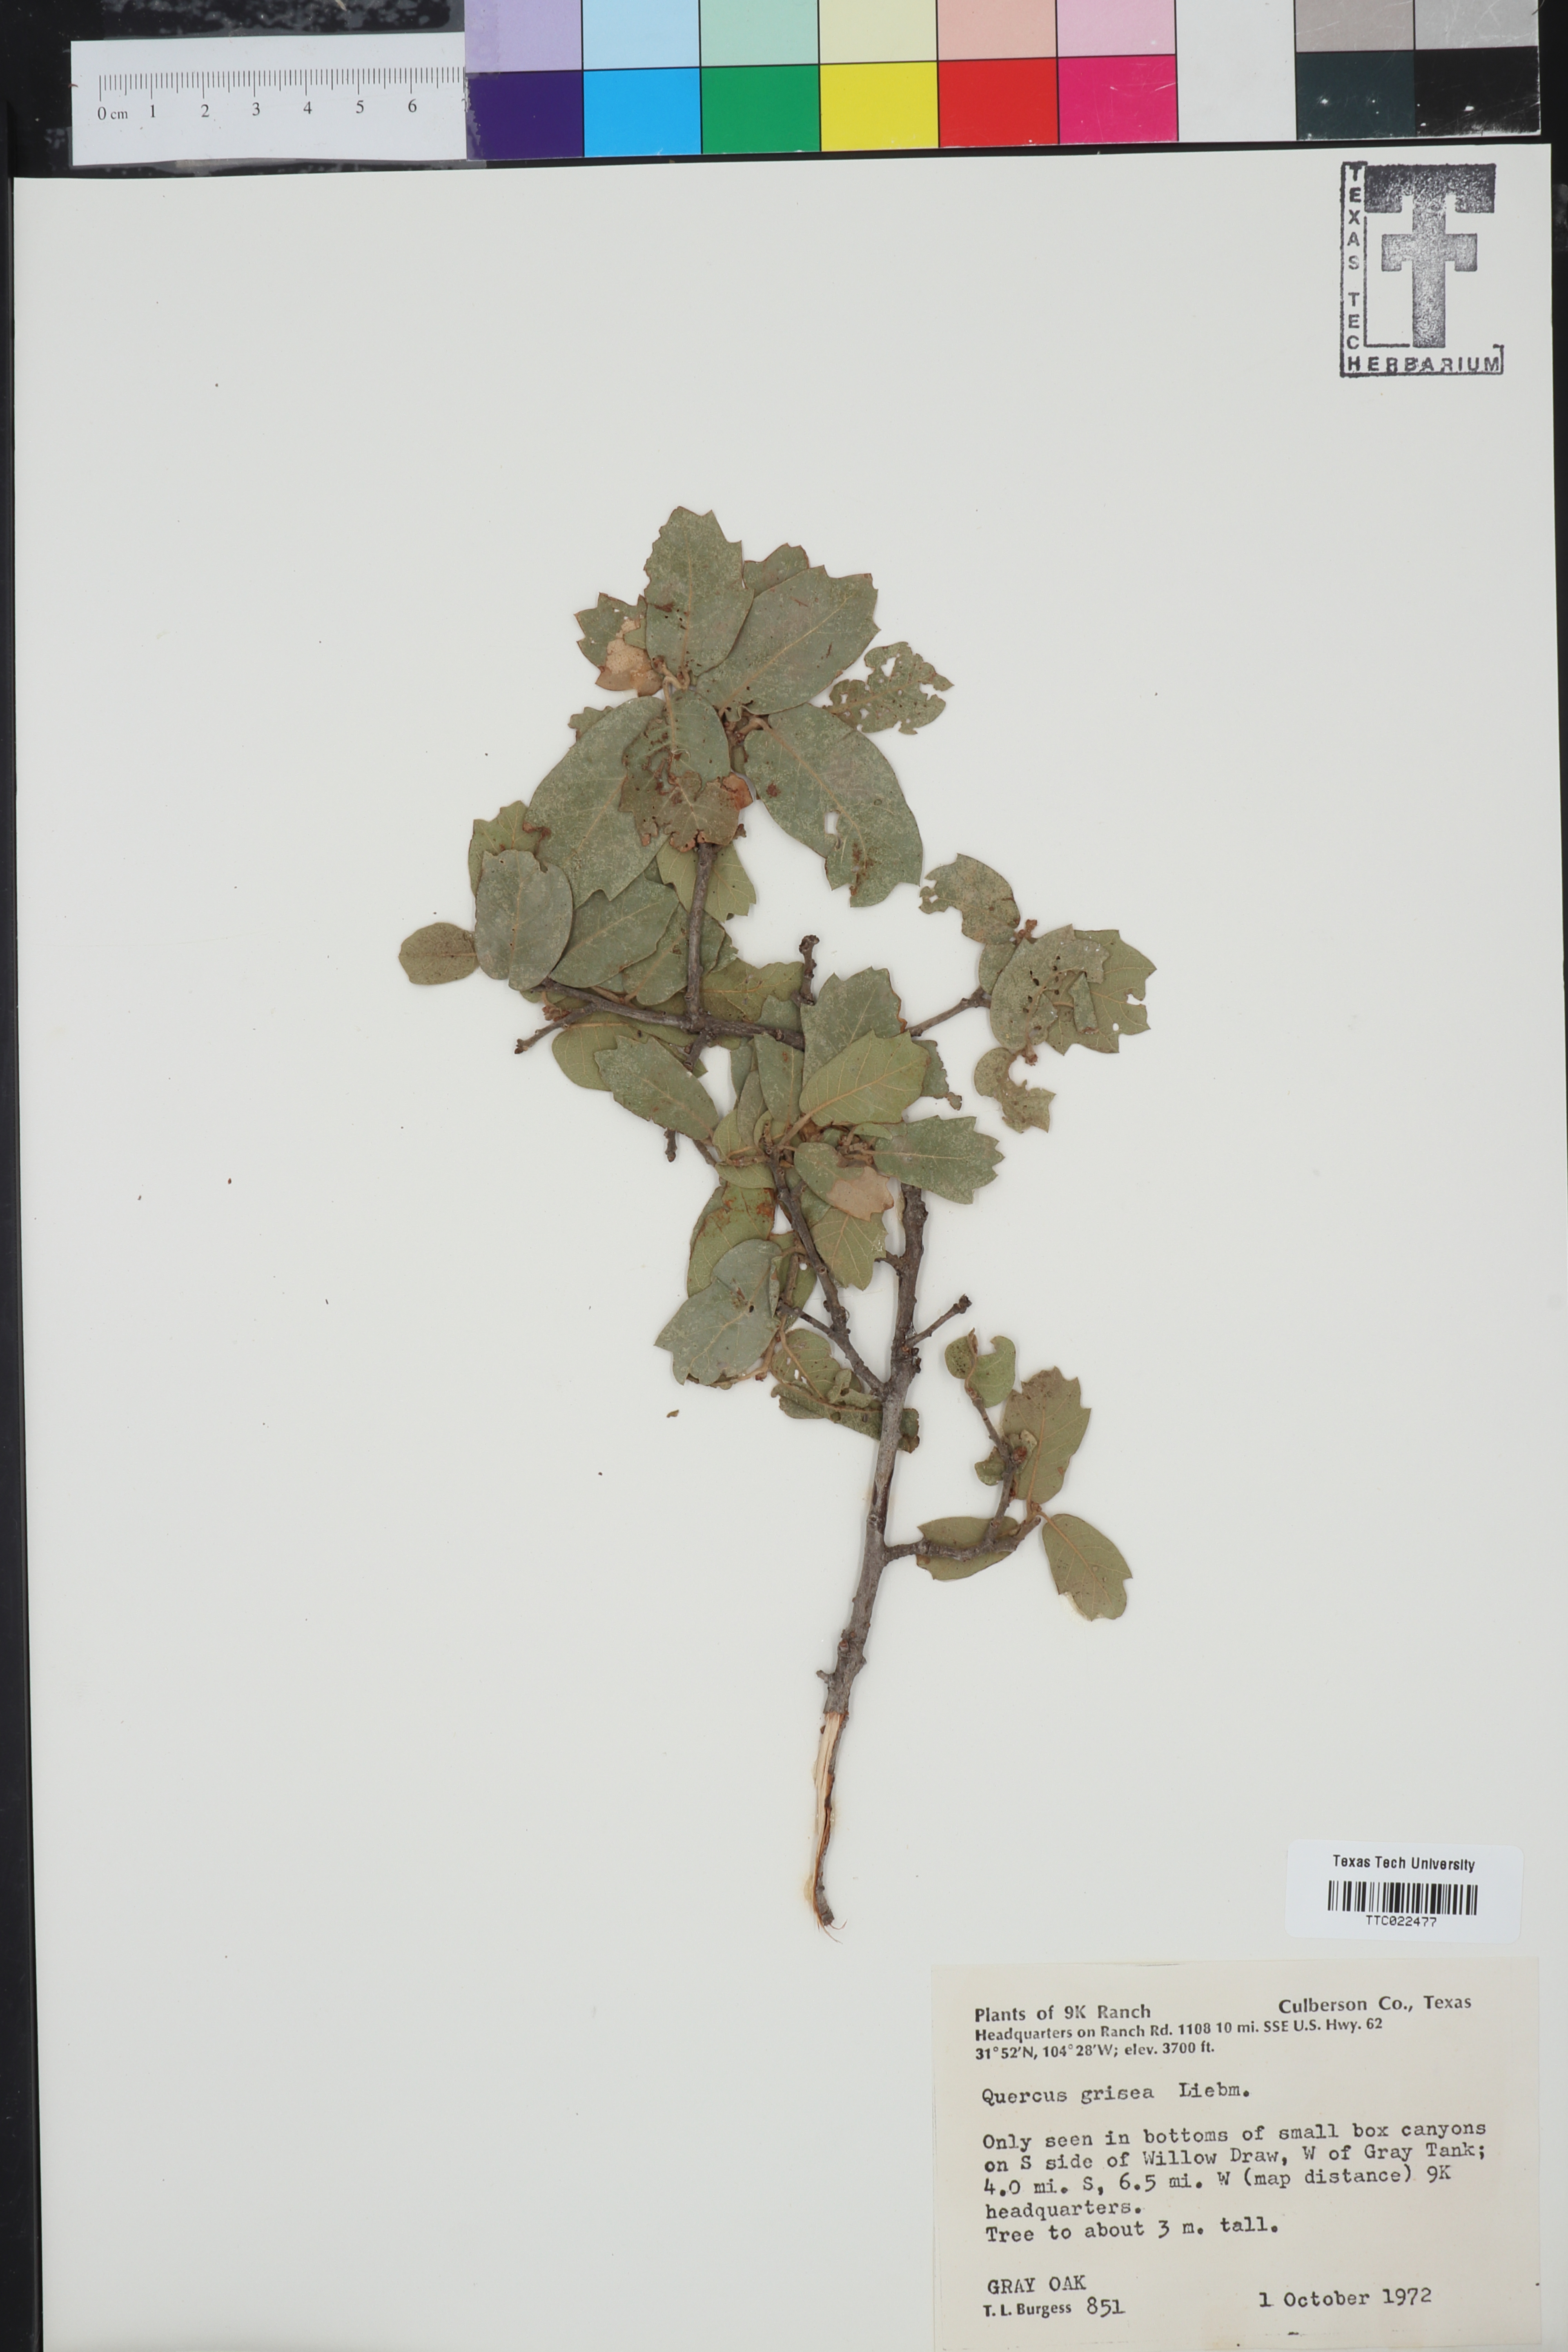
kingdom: Plantae
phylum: Tracheophyta
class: Magnoliopsida
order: Fagales
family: Fagaceae
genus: Quercus
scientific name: Quercus grisea
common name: Gray oak
